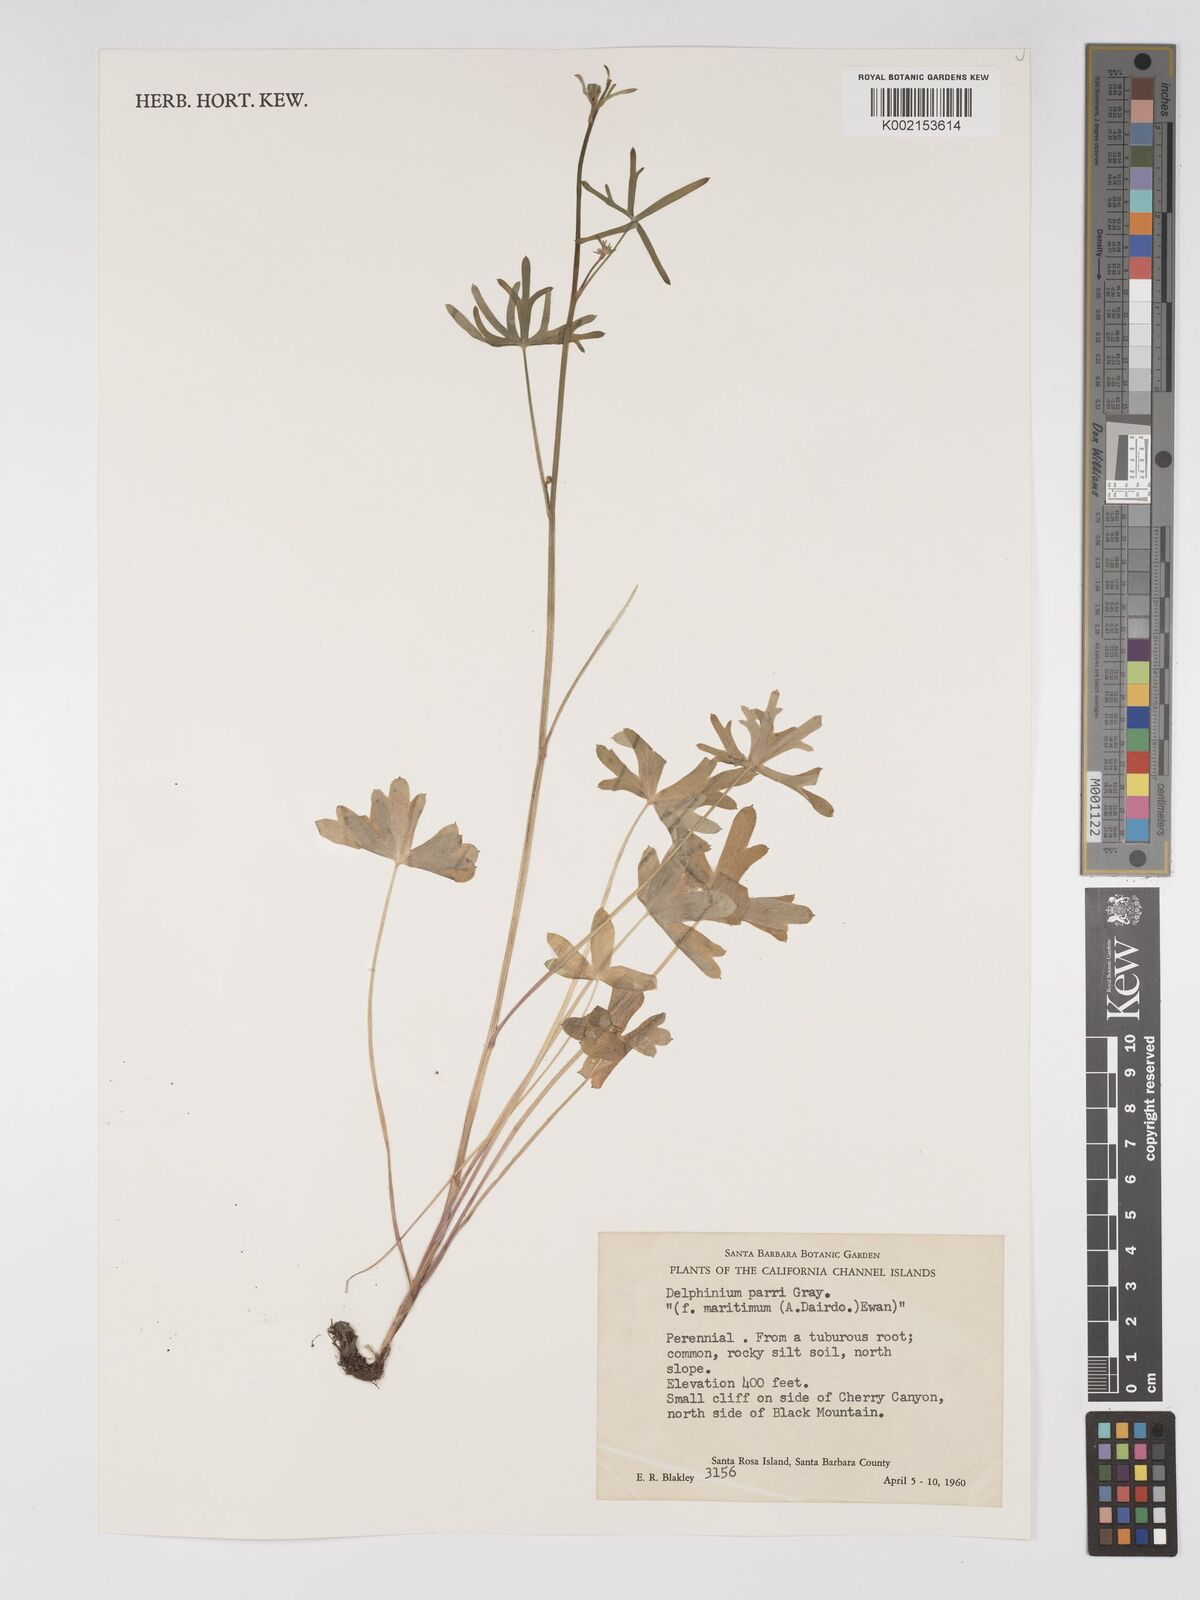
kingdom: Plantae
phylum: Tracheophyta
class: Magnoliopsida
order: Ranunculales
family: Ranunculaceae
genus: Delphinium
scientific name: Delphinium parryi
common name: Parry's larkspur
